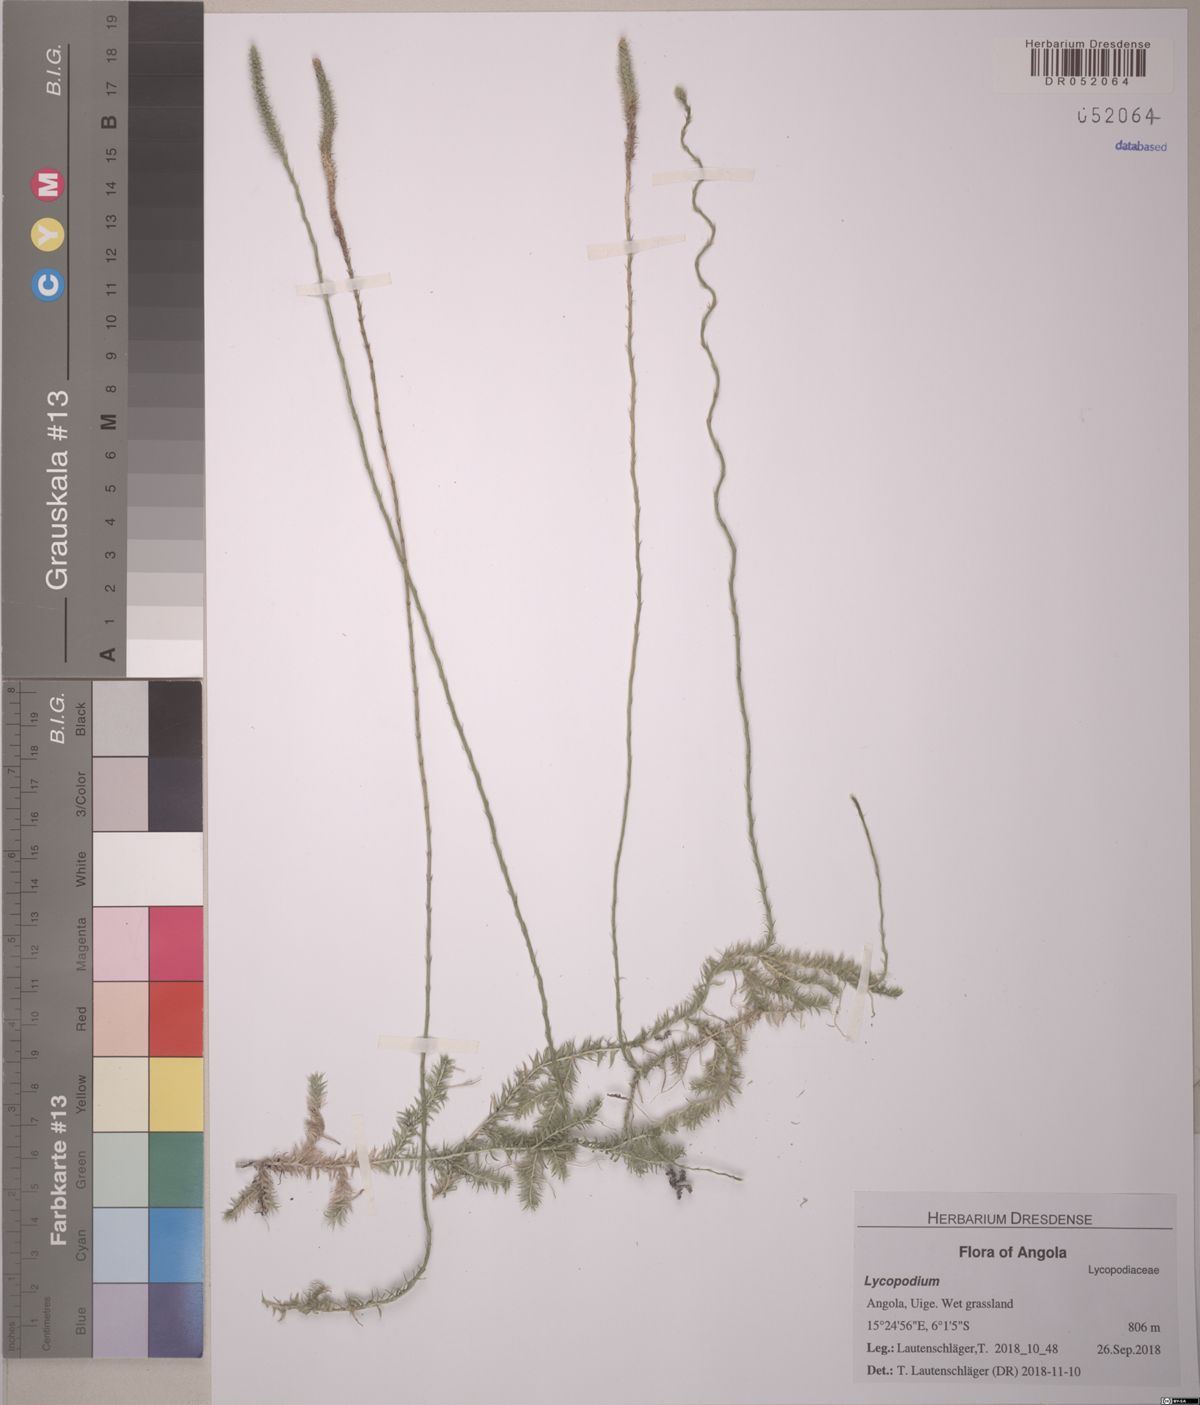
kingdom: Plantae
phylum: Tracheophyta
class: Lycopodiopsida
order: Lycopodiales
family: Lycopodiaceae
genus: Pseudolycopodiella
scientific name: Pseudolycopodiella caroliniana
